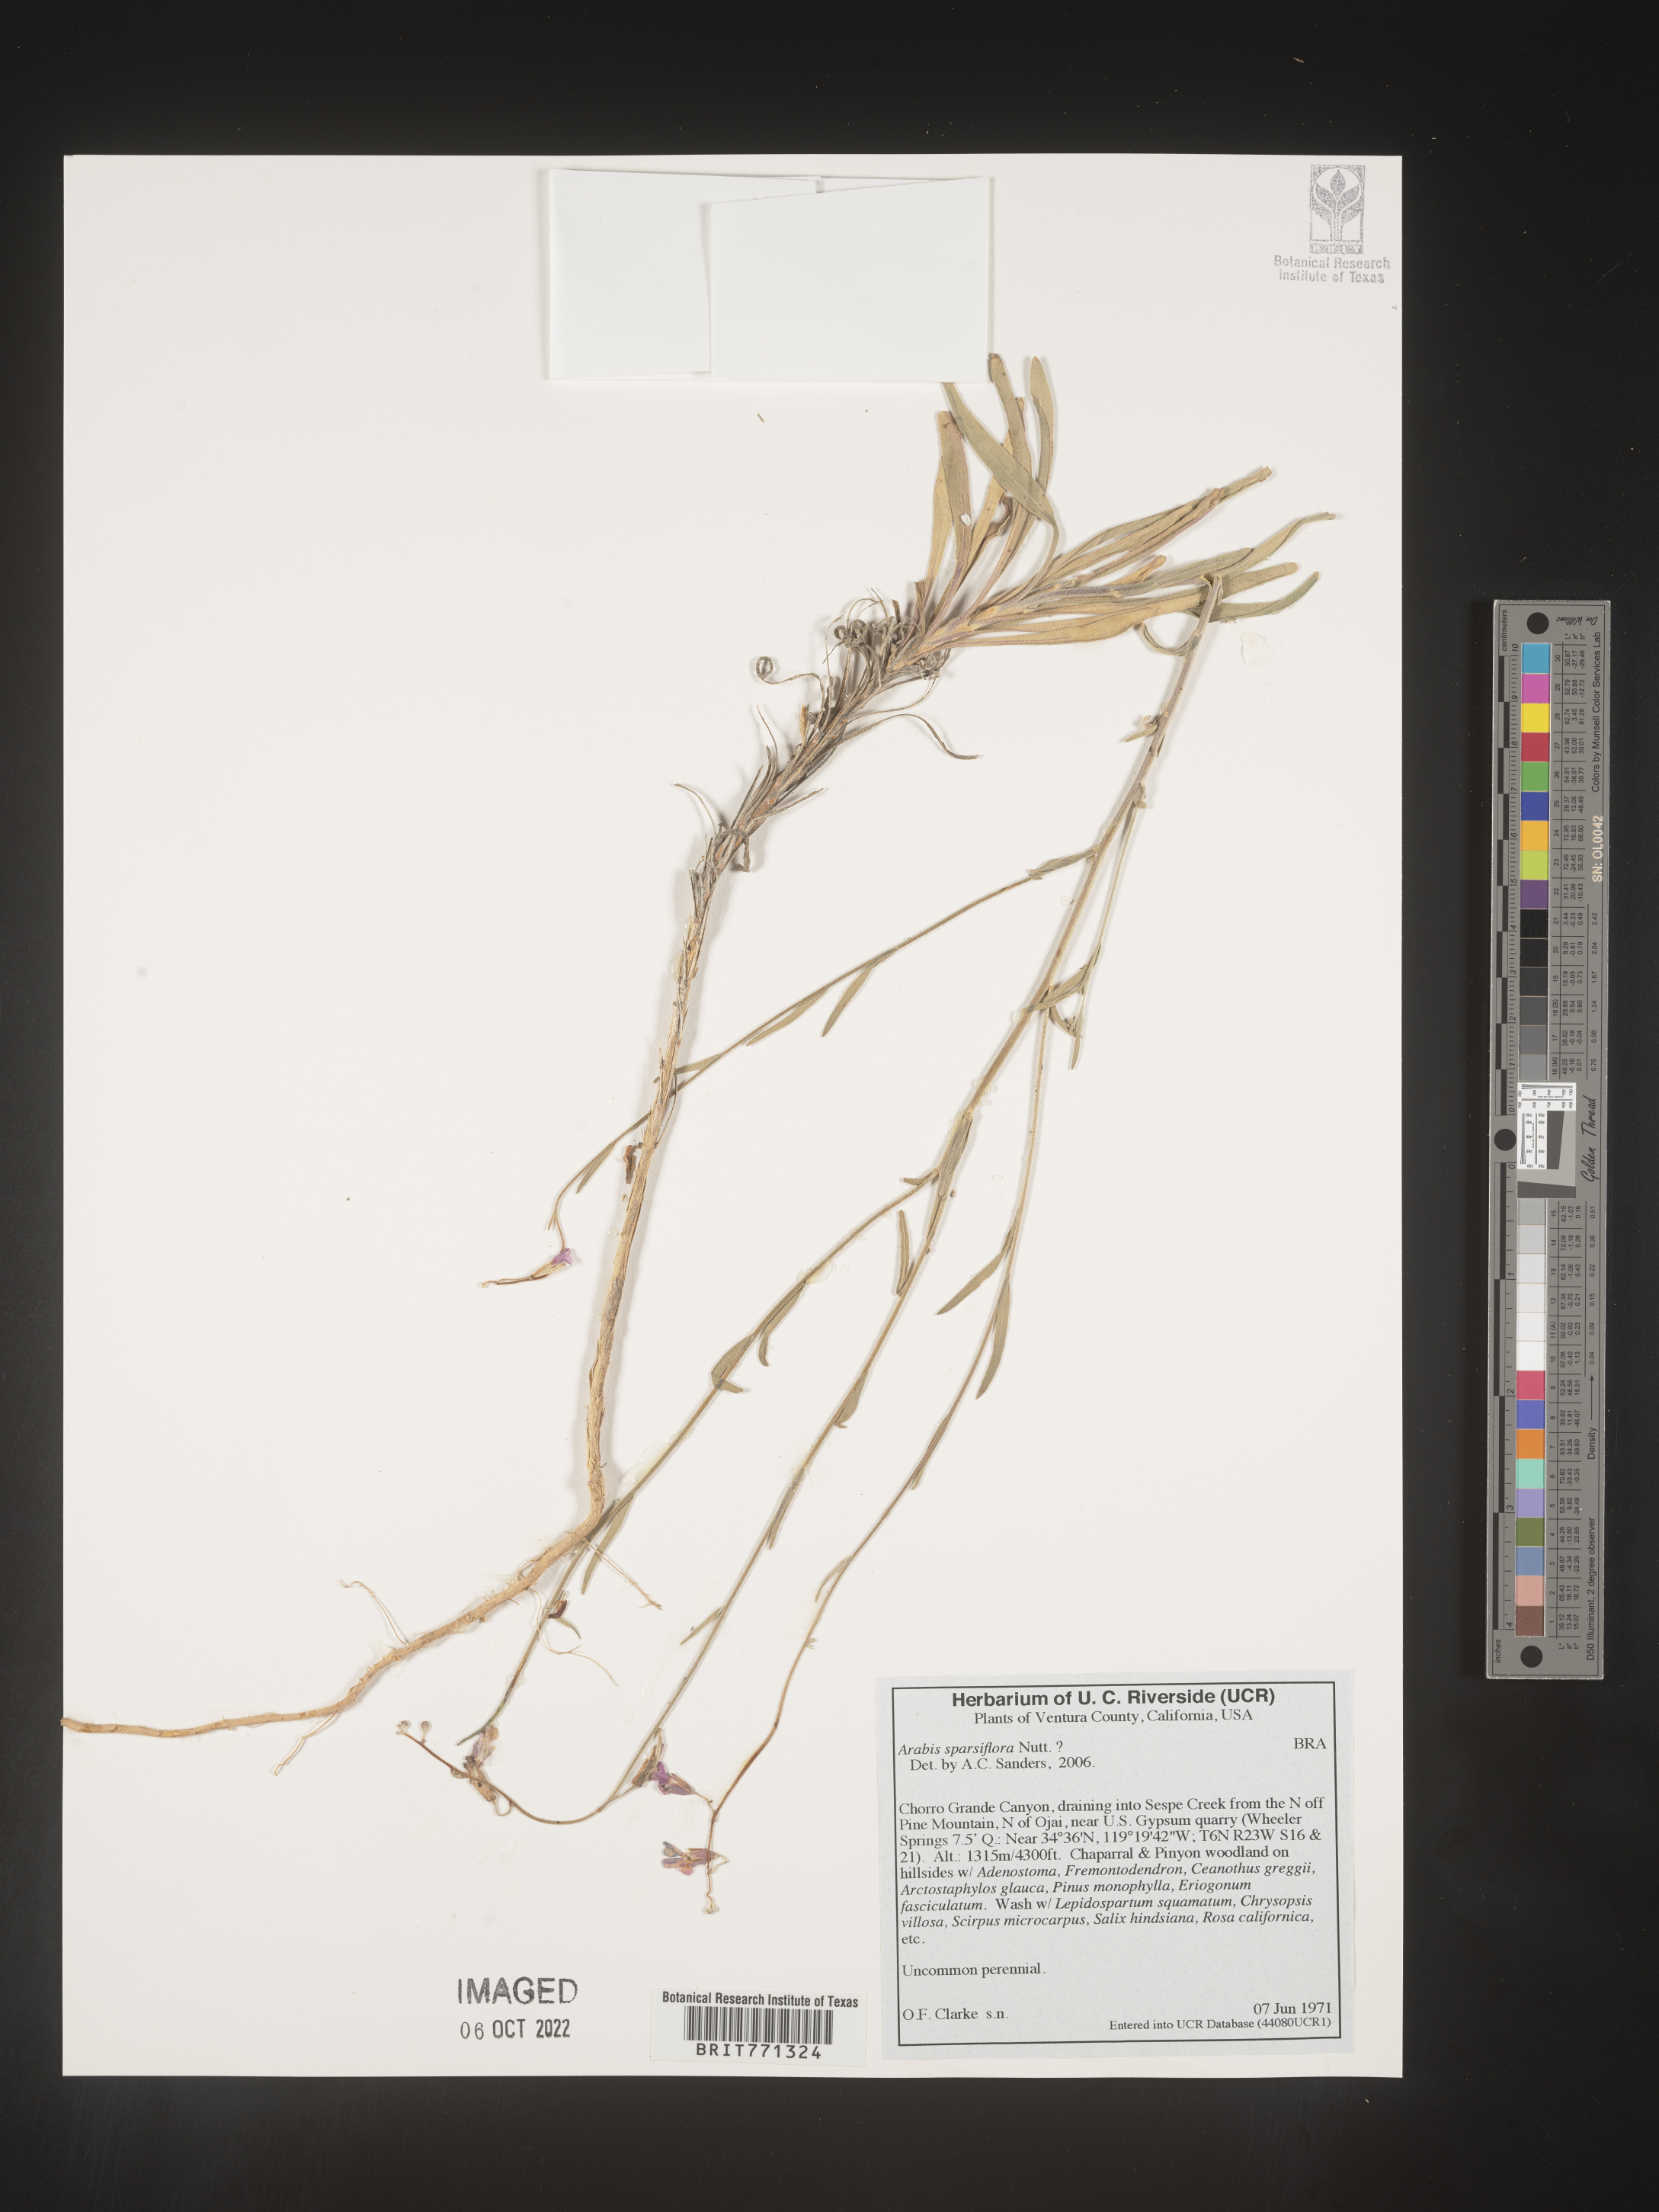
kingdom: Plantae
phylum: Tracheophyta
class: Magnoliopsida
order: Brassicales
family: Brassicaceae
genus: Arabis
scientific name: Arabis
